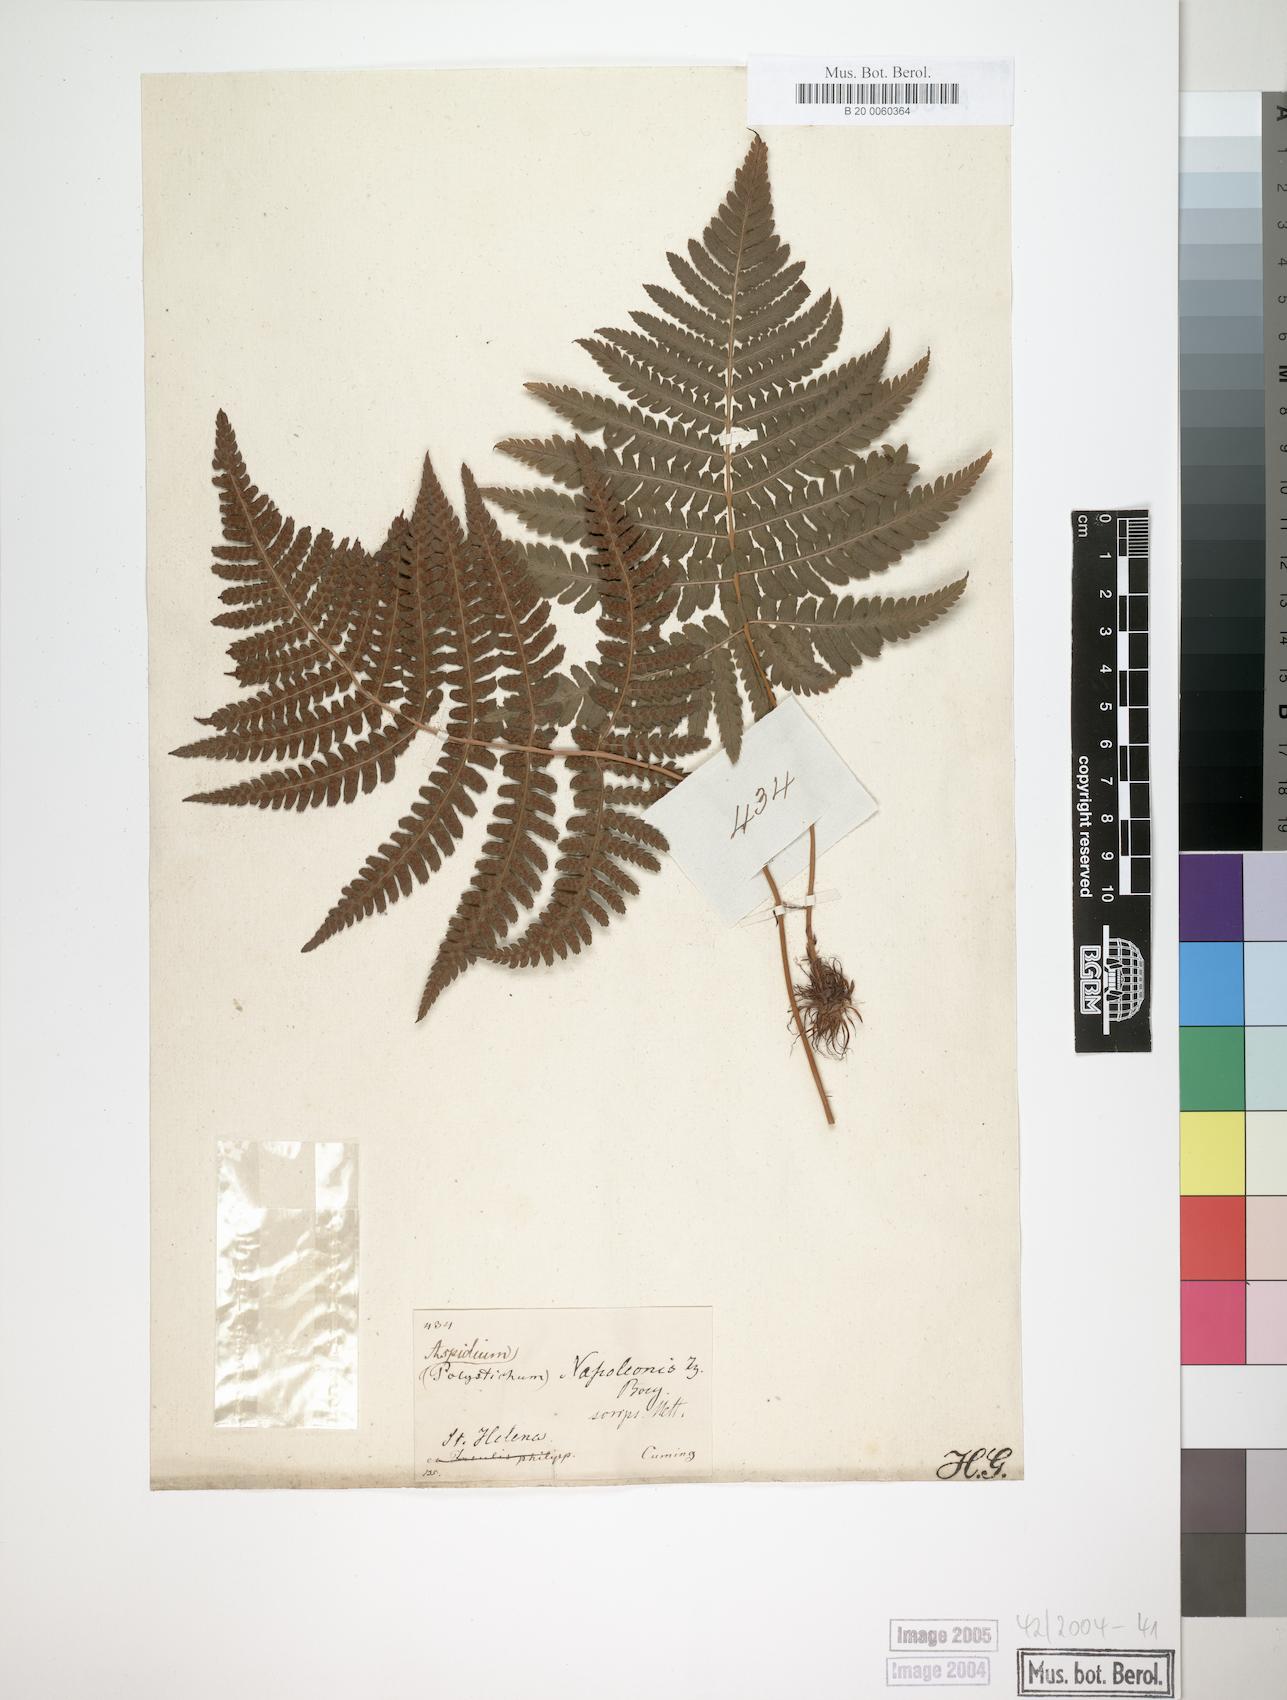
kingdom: Plantae
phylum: Tracheophyta
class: Polypodiopsida
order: Polypodiales
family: Dryopteridaceae
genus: Dryopteris
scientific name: Dryopteris napoleonis
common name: Small kidney fern
